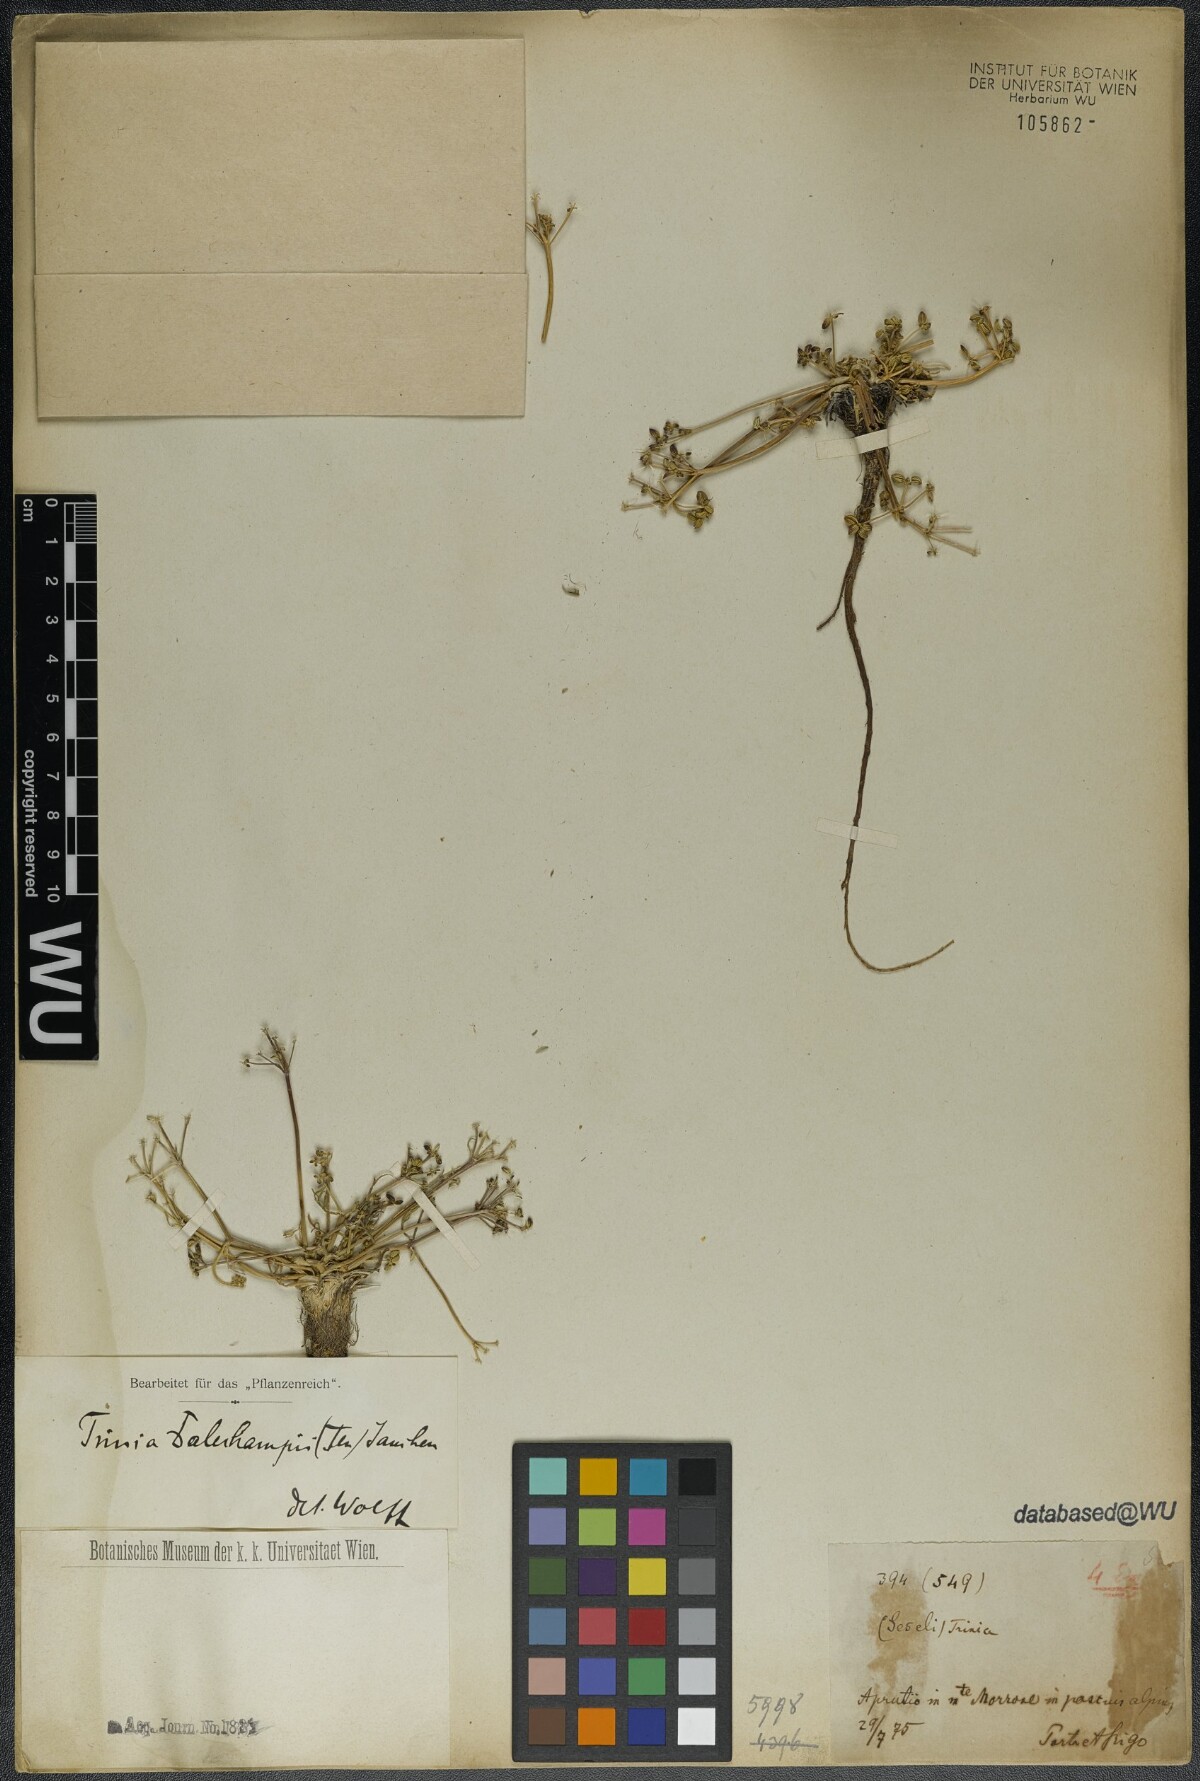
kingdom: Plantae
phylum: Tracheophyta
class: Magnoliopsida
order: Apiales
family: Apiaceae
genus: Trinia
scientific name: Trinia dalechampii
